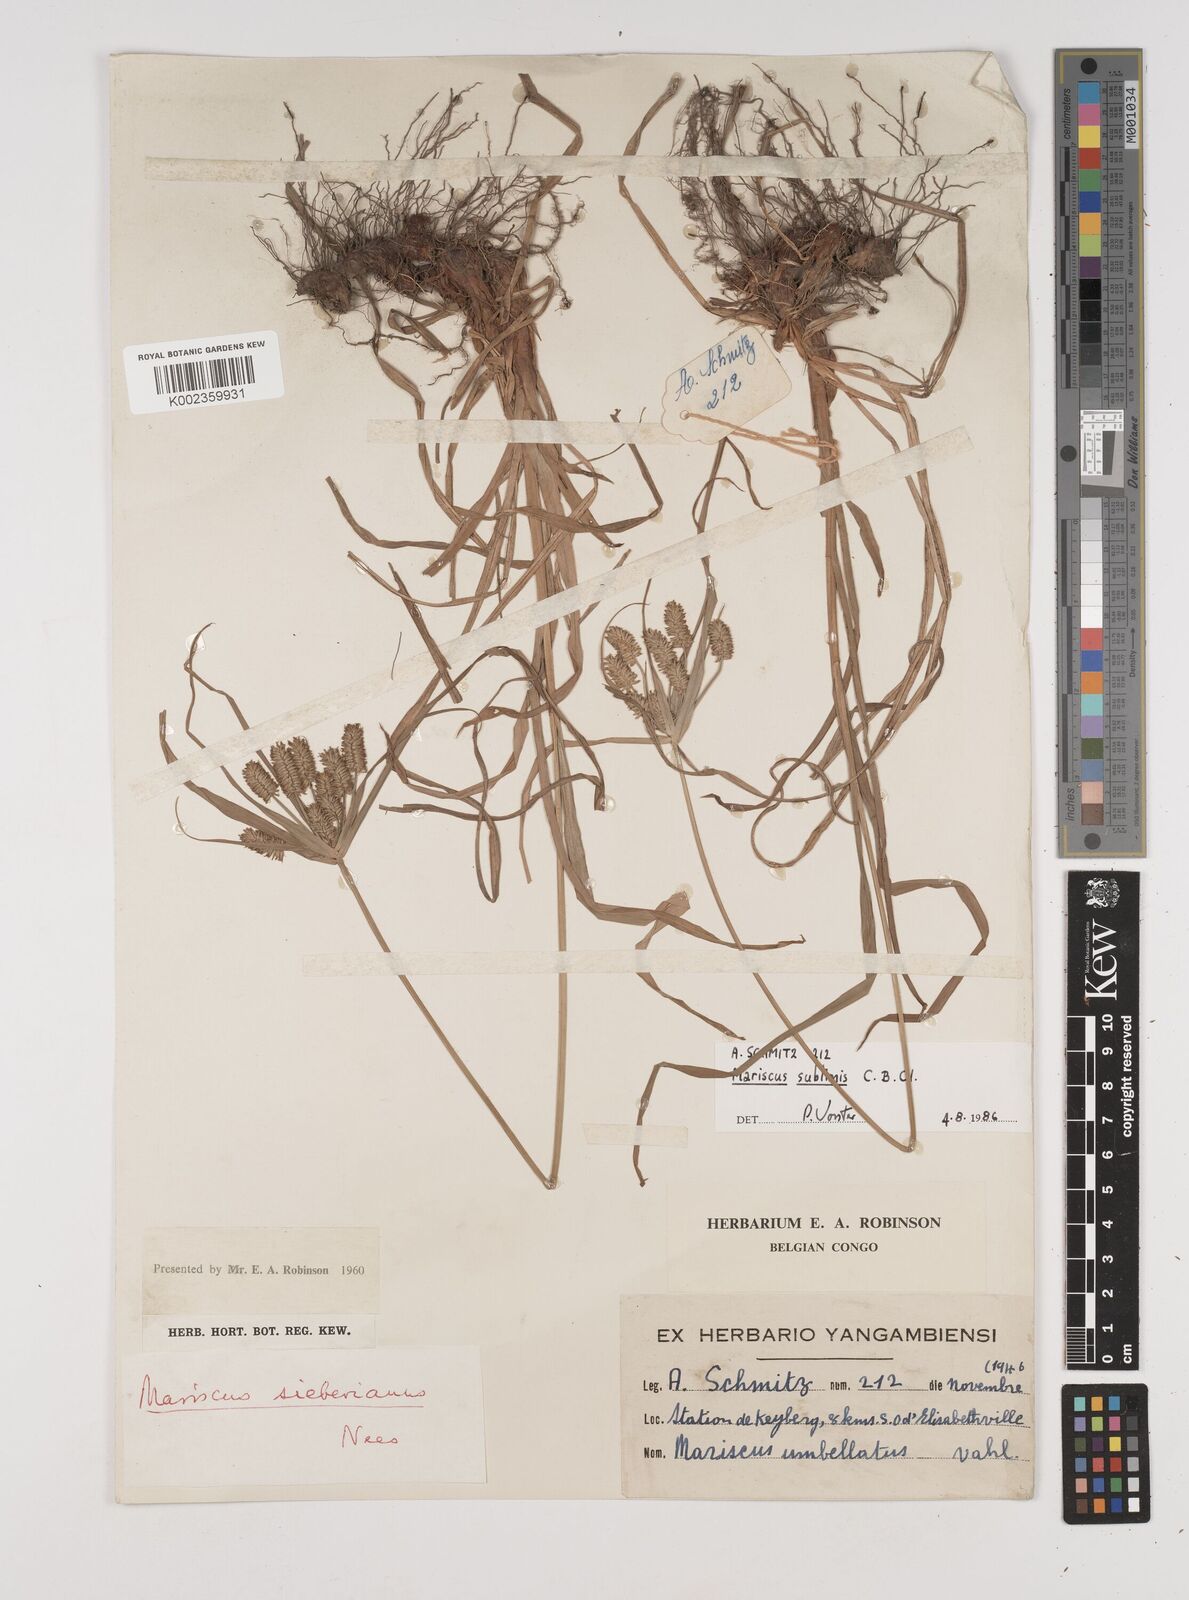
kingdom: Plantae
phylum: Tracheophyta
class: Liliopsida
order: Poales
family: Cyperaceae
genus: Cyperus
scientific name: Cyperus cyperoides
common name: Pacific island flat sedge
